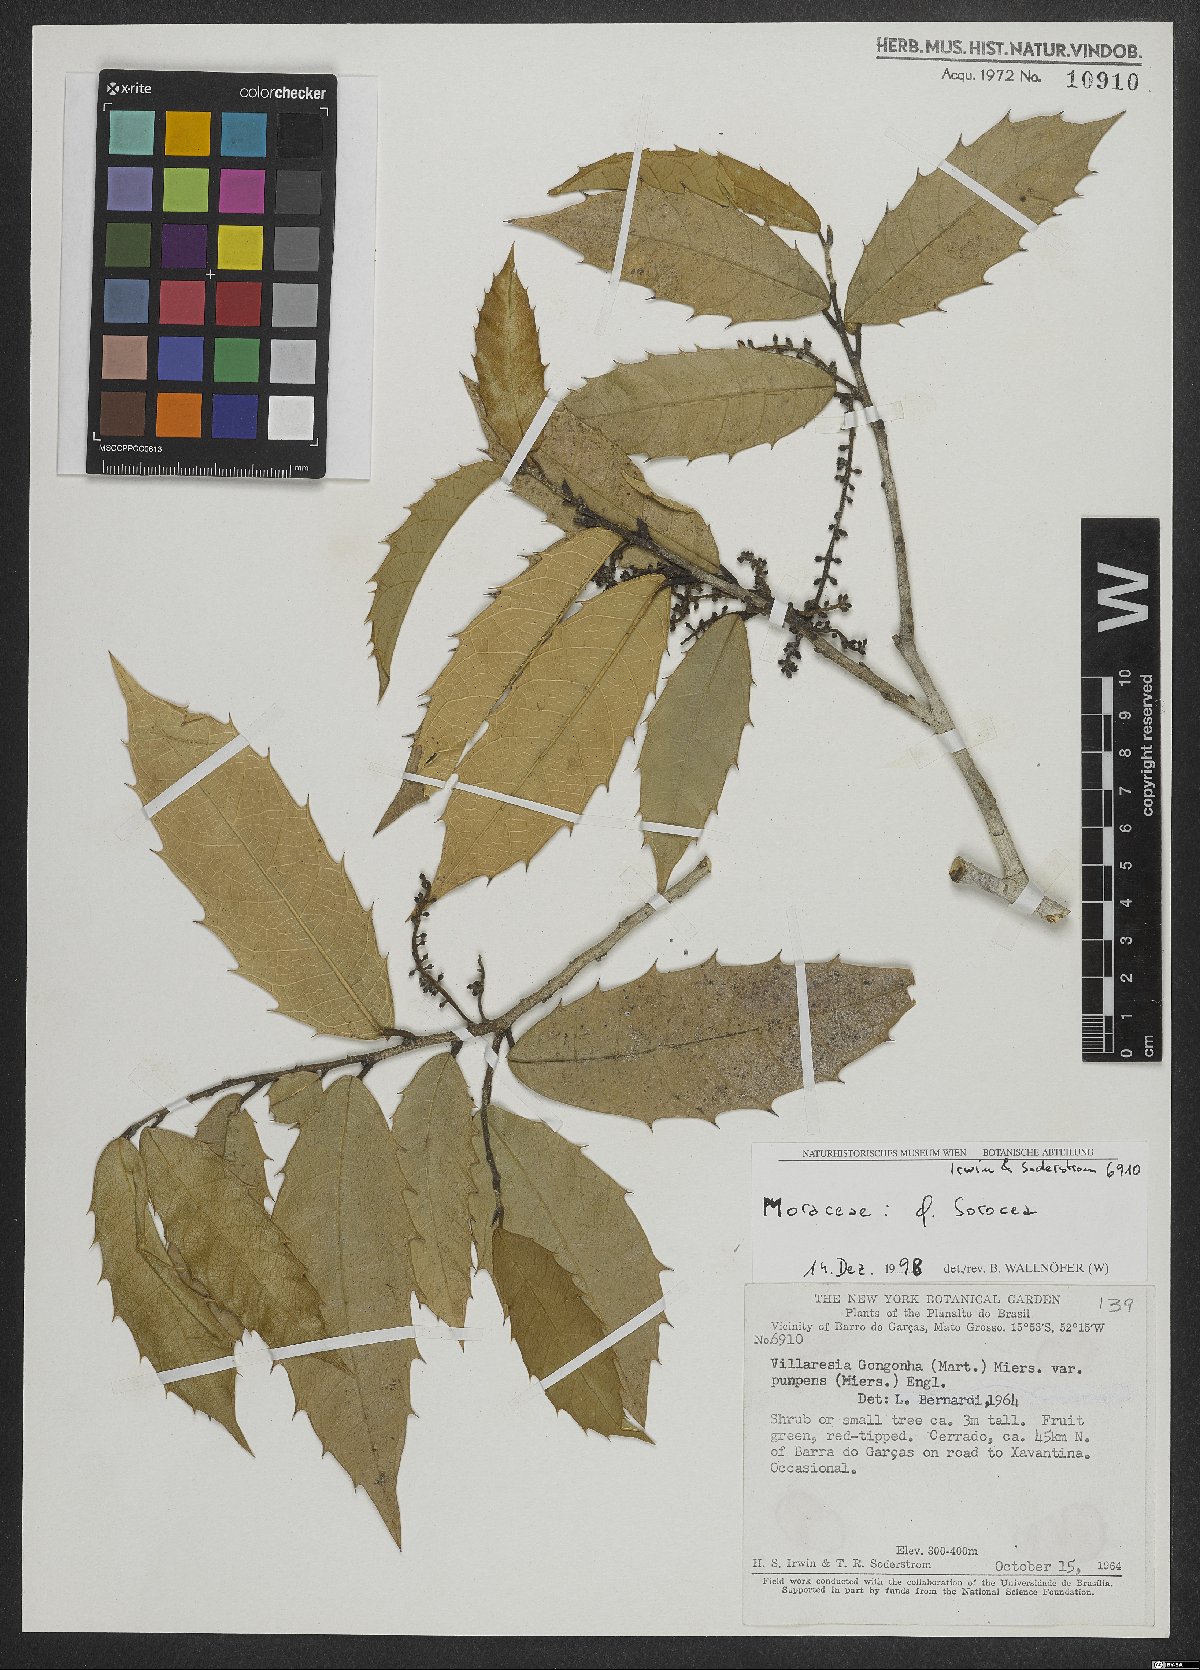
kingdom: Plantae
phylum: Tracheophyta
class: Magnoliopsida
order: Rosales
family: Moraceae
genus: Sorocea
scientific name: Sorocea
